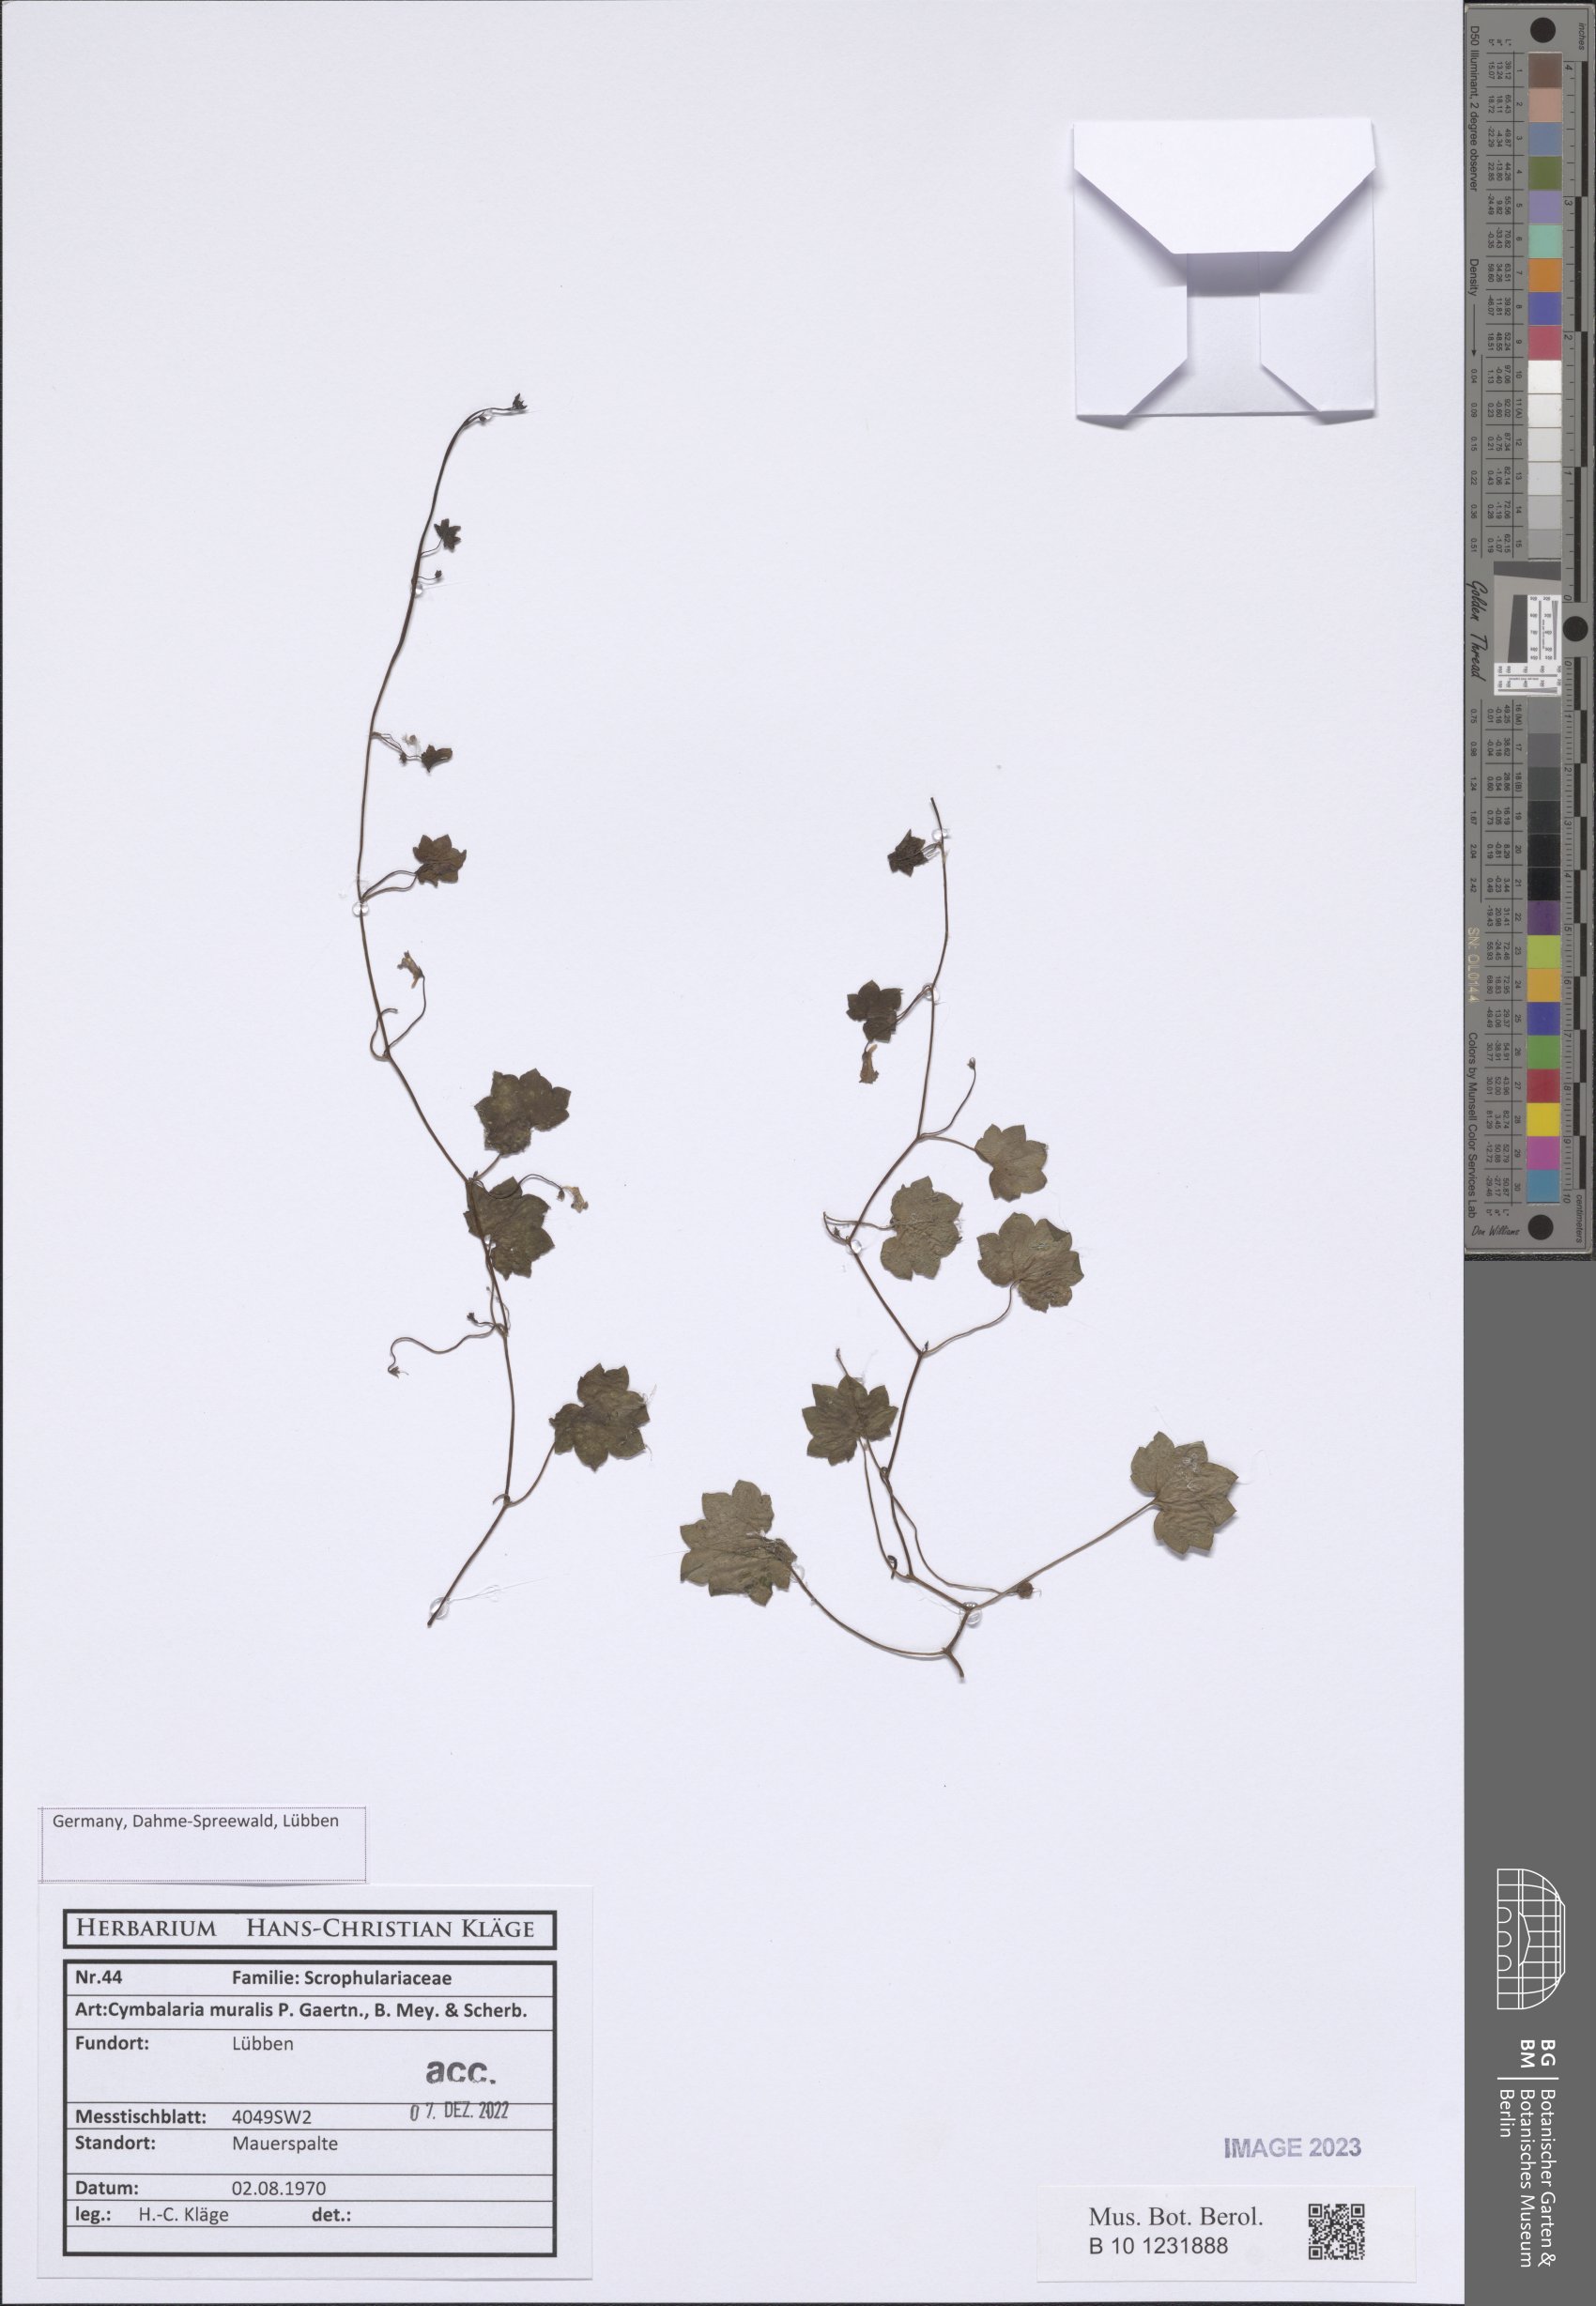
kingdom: Plantae
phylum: Tracheophyta
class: Magnoliopsida
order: Lamiales
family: Plantaginaceae
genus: Cymbalaria
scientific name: Cymbalaria muralis
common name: Ivy-leaved toadflax
